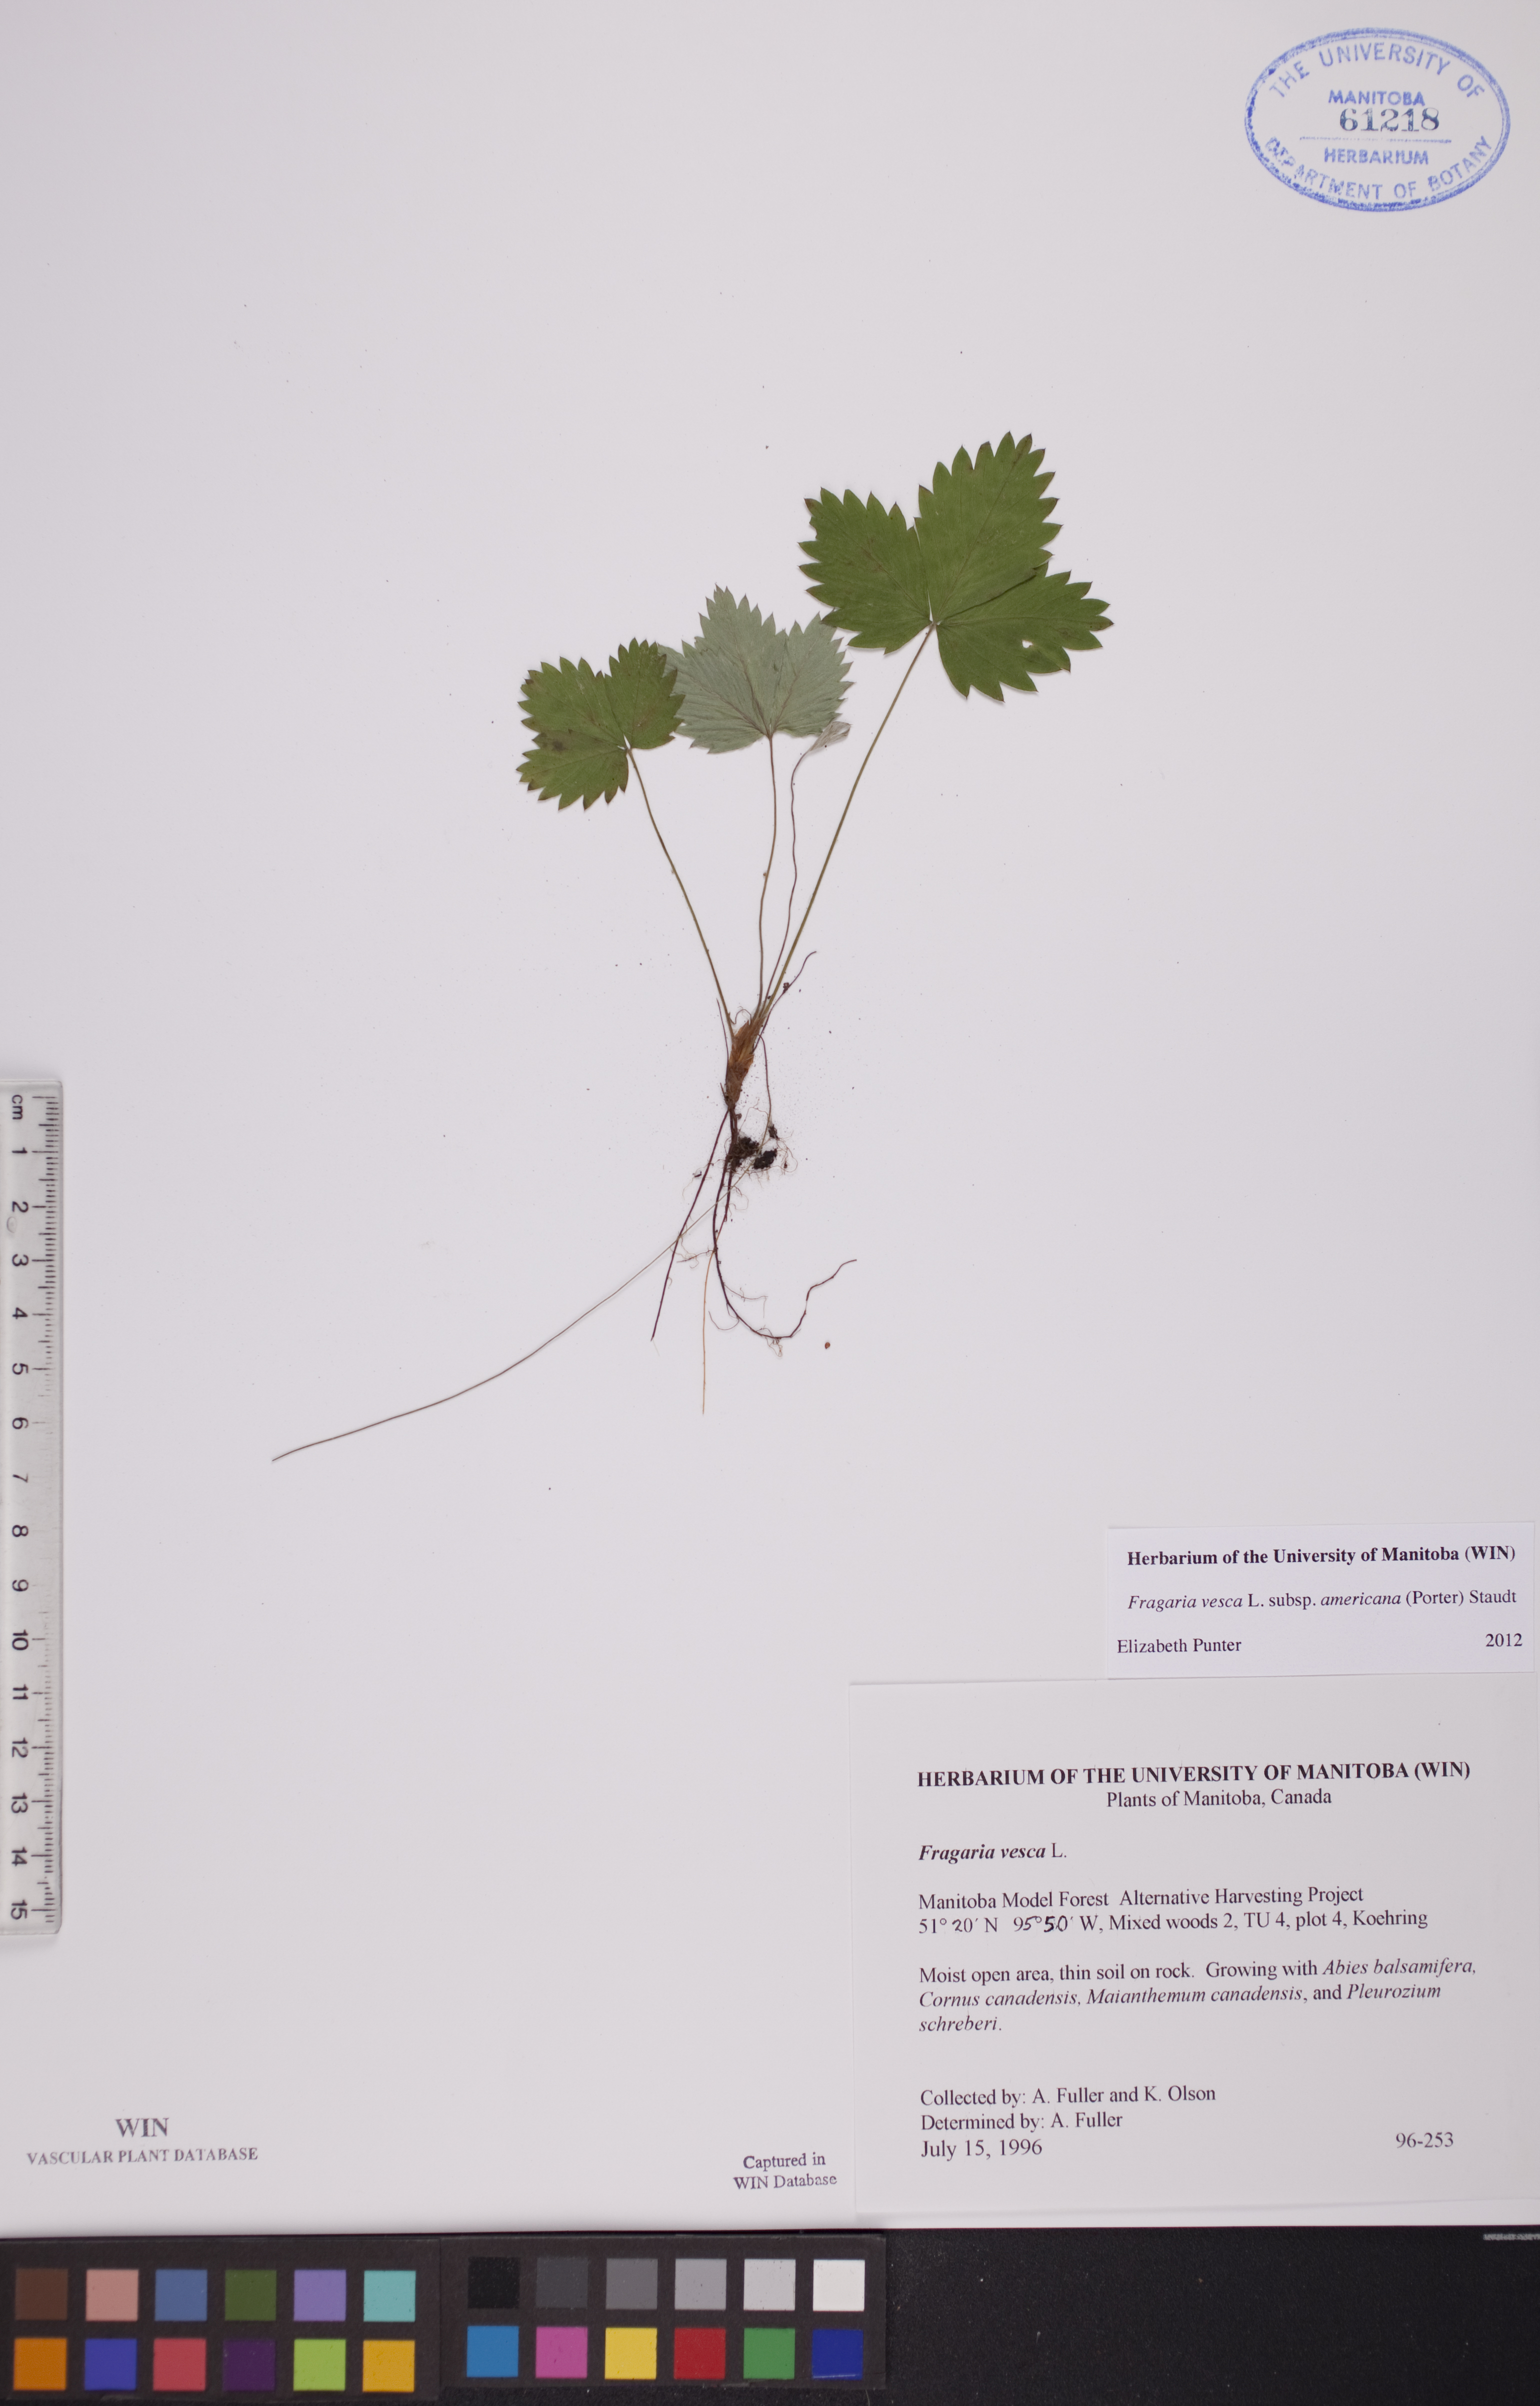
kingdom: Plantae
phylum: Tracheophyta
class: Magnoliopsida
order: Rosales
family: Rosaceae
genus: Fragaria
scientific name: Fragaria vesca
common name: Wild strawberry
